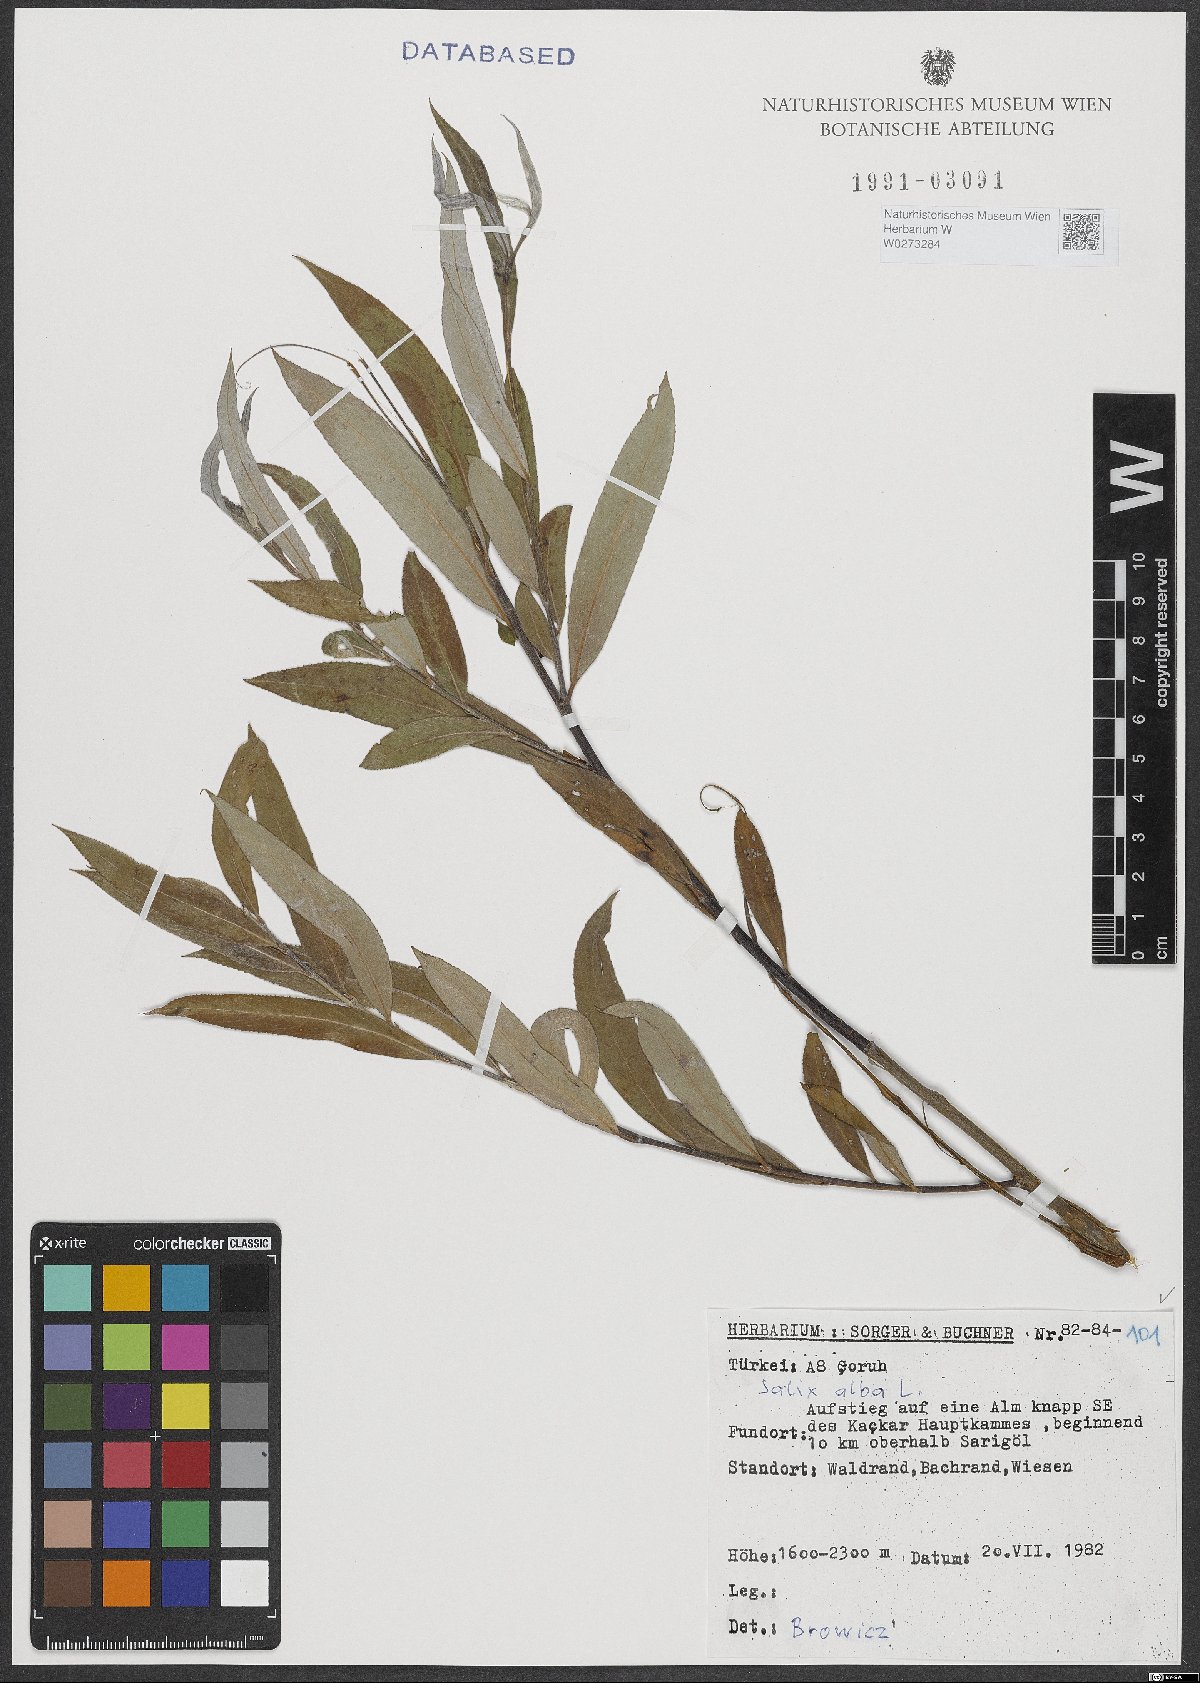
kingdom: Plantae
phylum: Tracheophyta
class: Magnoliopsida
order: Malpighiales
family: Salicaceae
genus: Salix
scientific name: Salix alba
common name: White willow
